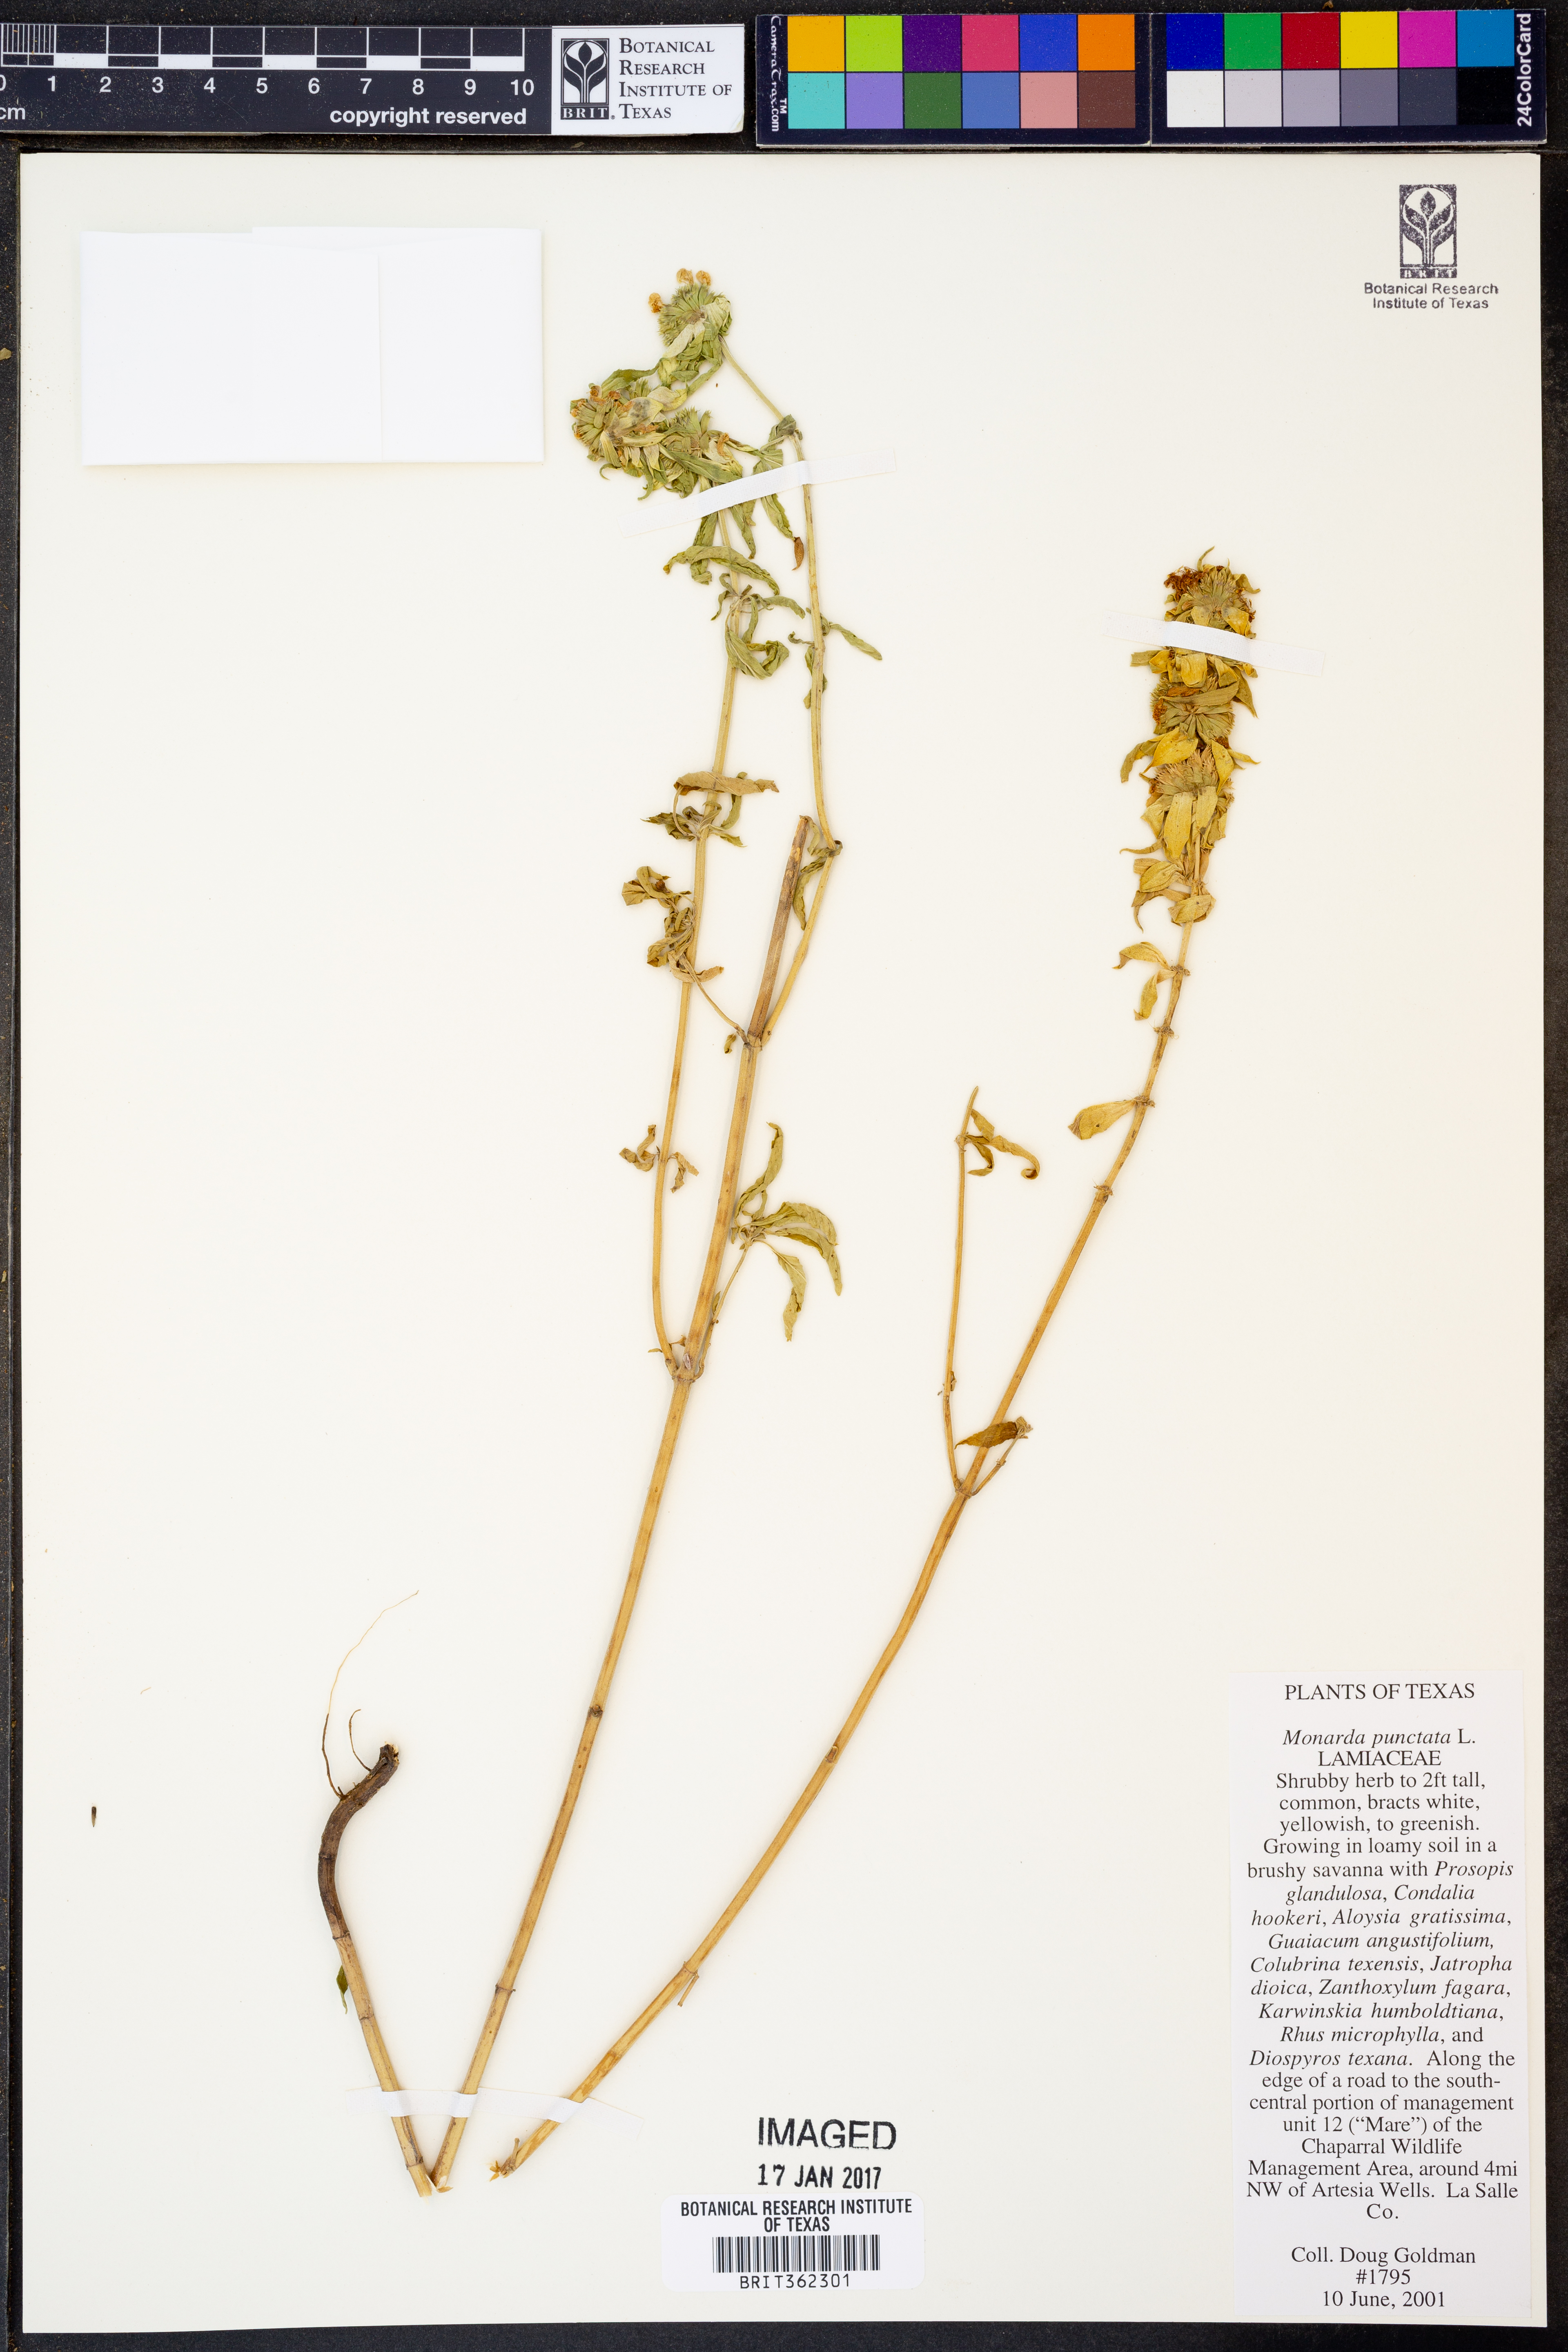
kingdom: Plantae
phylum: Tracheophyta
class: Magnoliopsida
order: Lamiales
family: Lamiaceae
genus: Monarda
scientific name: Monarda punctata
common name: Dotted monarda
